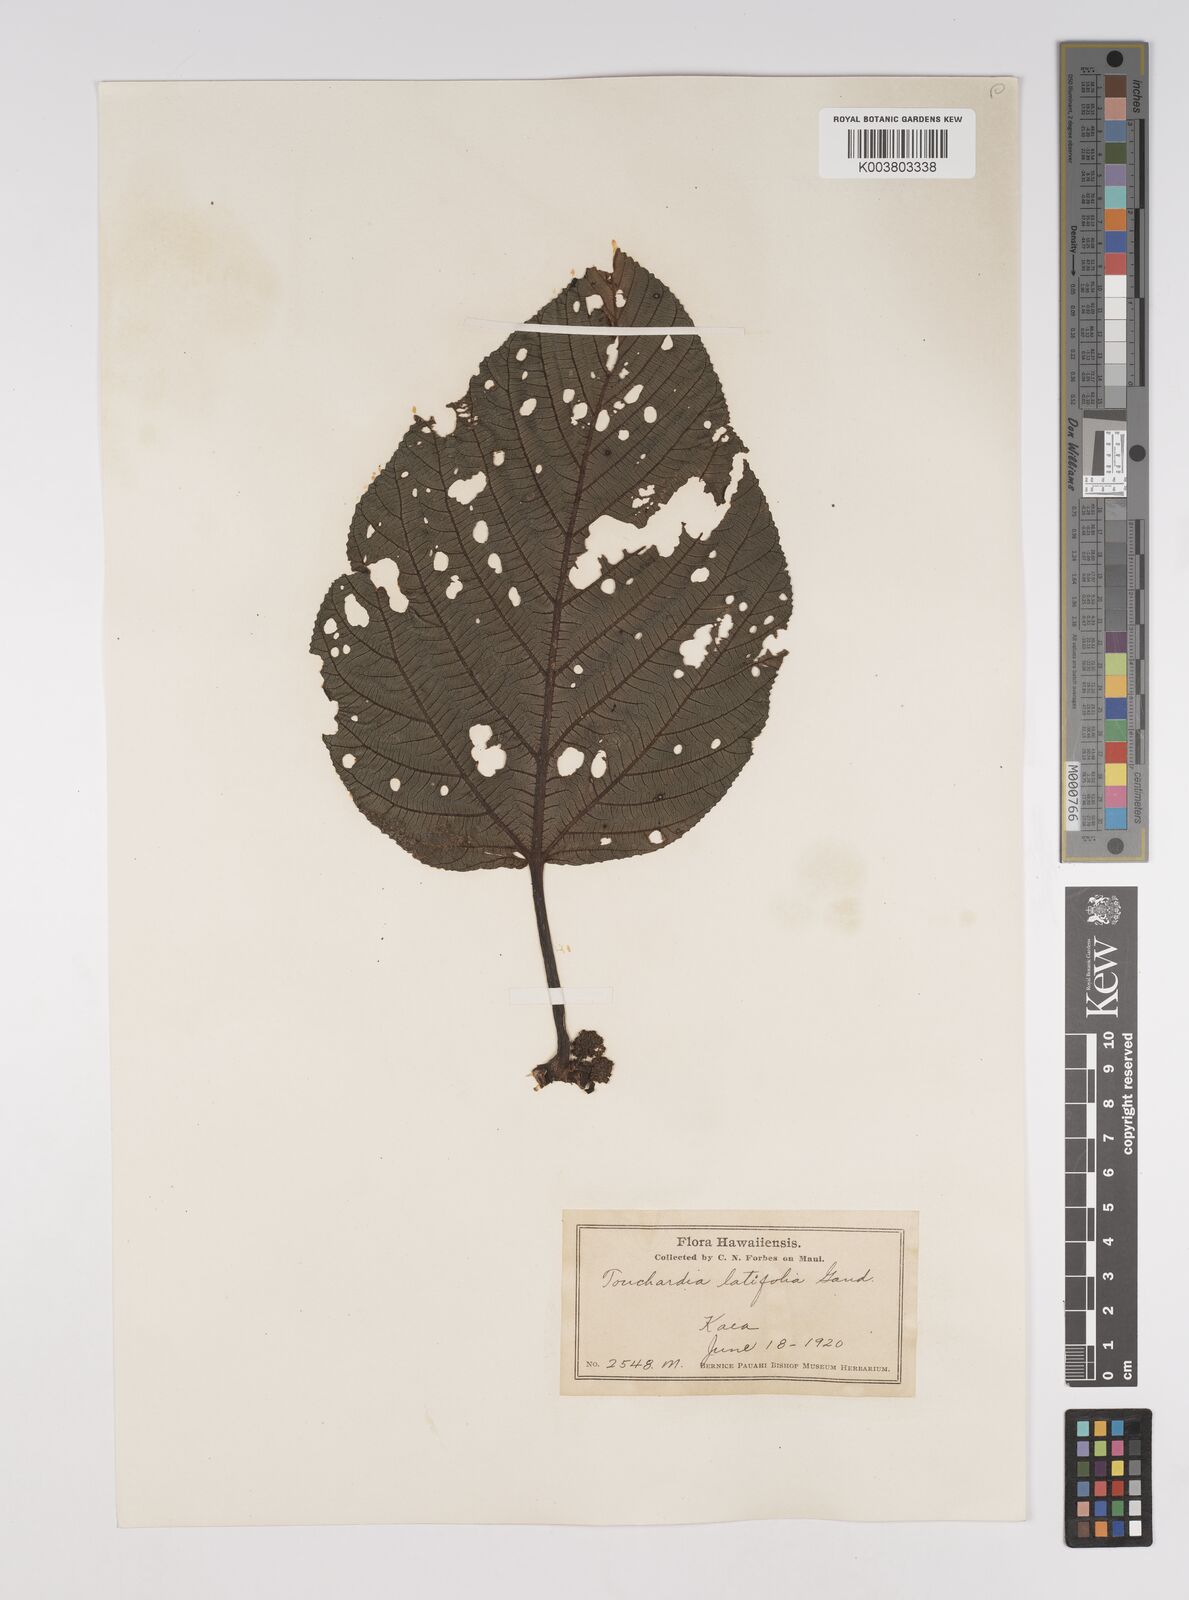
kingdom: Plantae
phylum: Tracheophyta
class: Magnoliopsida
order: Rosales
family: Urticaceae
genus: Touchardia
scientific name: Touchardia latifolia
